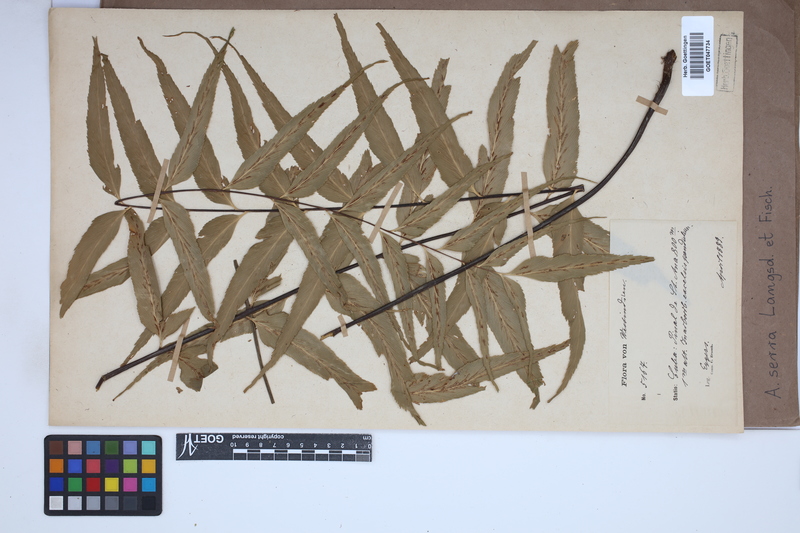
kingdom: Plantae
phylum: Tracheophyta
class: Polypodiopsida
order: Polypodiales
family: Aspleniaceae
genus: Asplenium
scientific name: Asplenium serra
